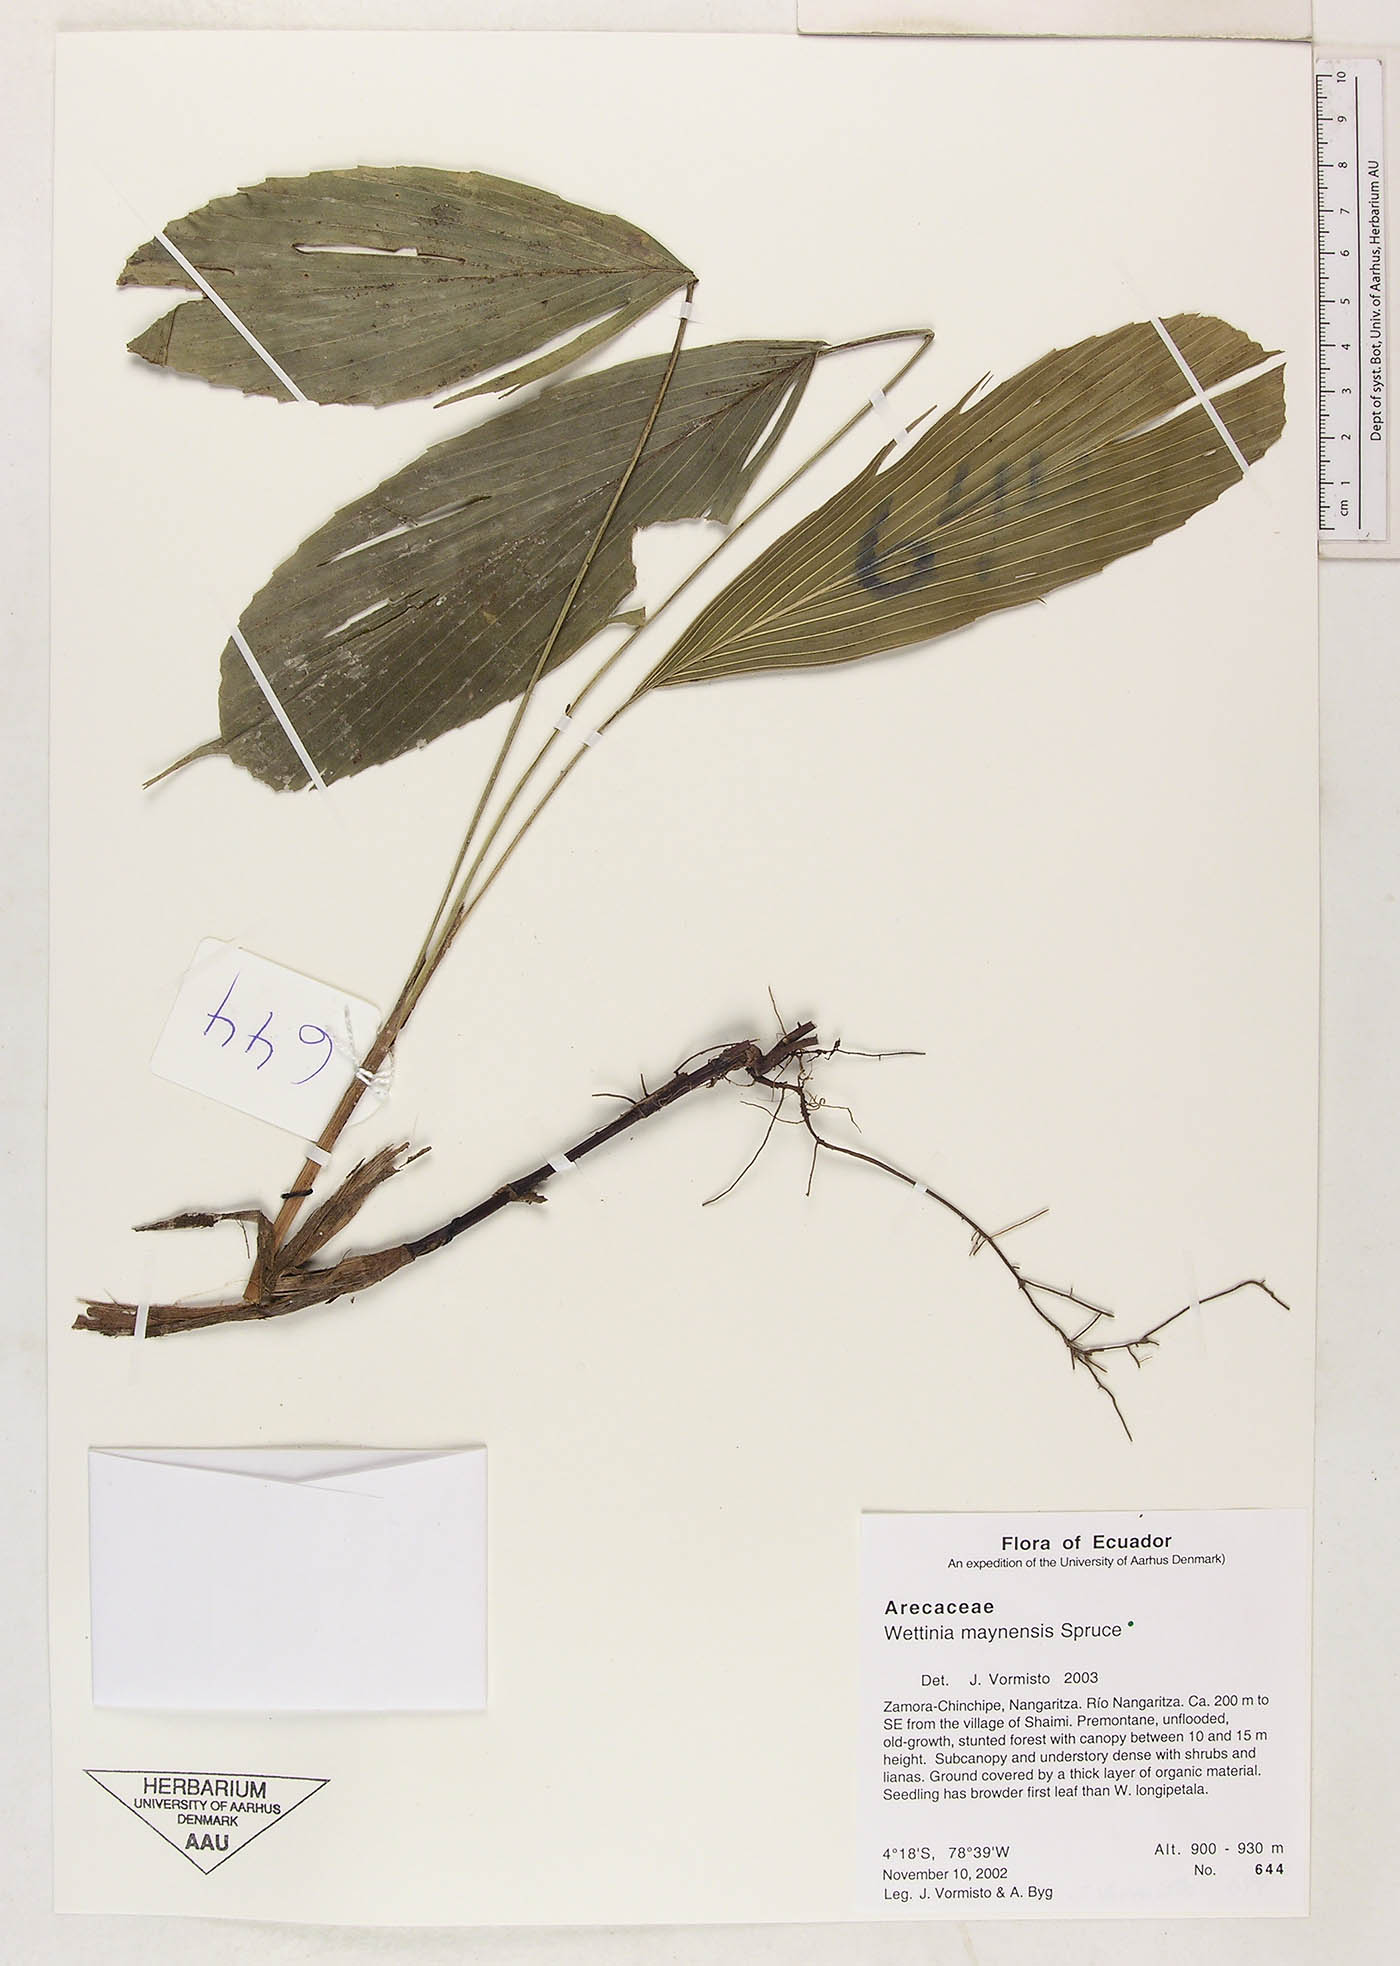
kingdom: Plantae
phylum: Tracheophyta
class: Liliopsida
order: Arecales
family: Arecaceae
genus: Wettinia
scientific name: Wettinia maynensis
